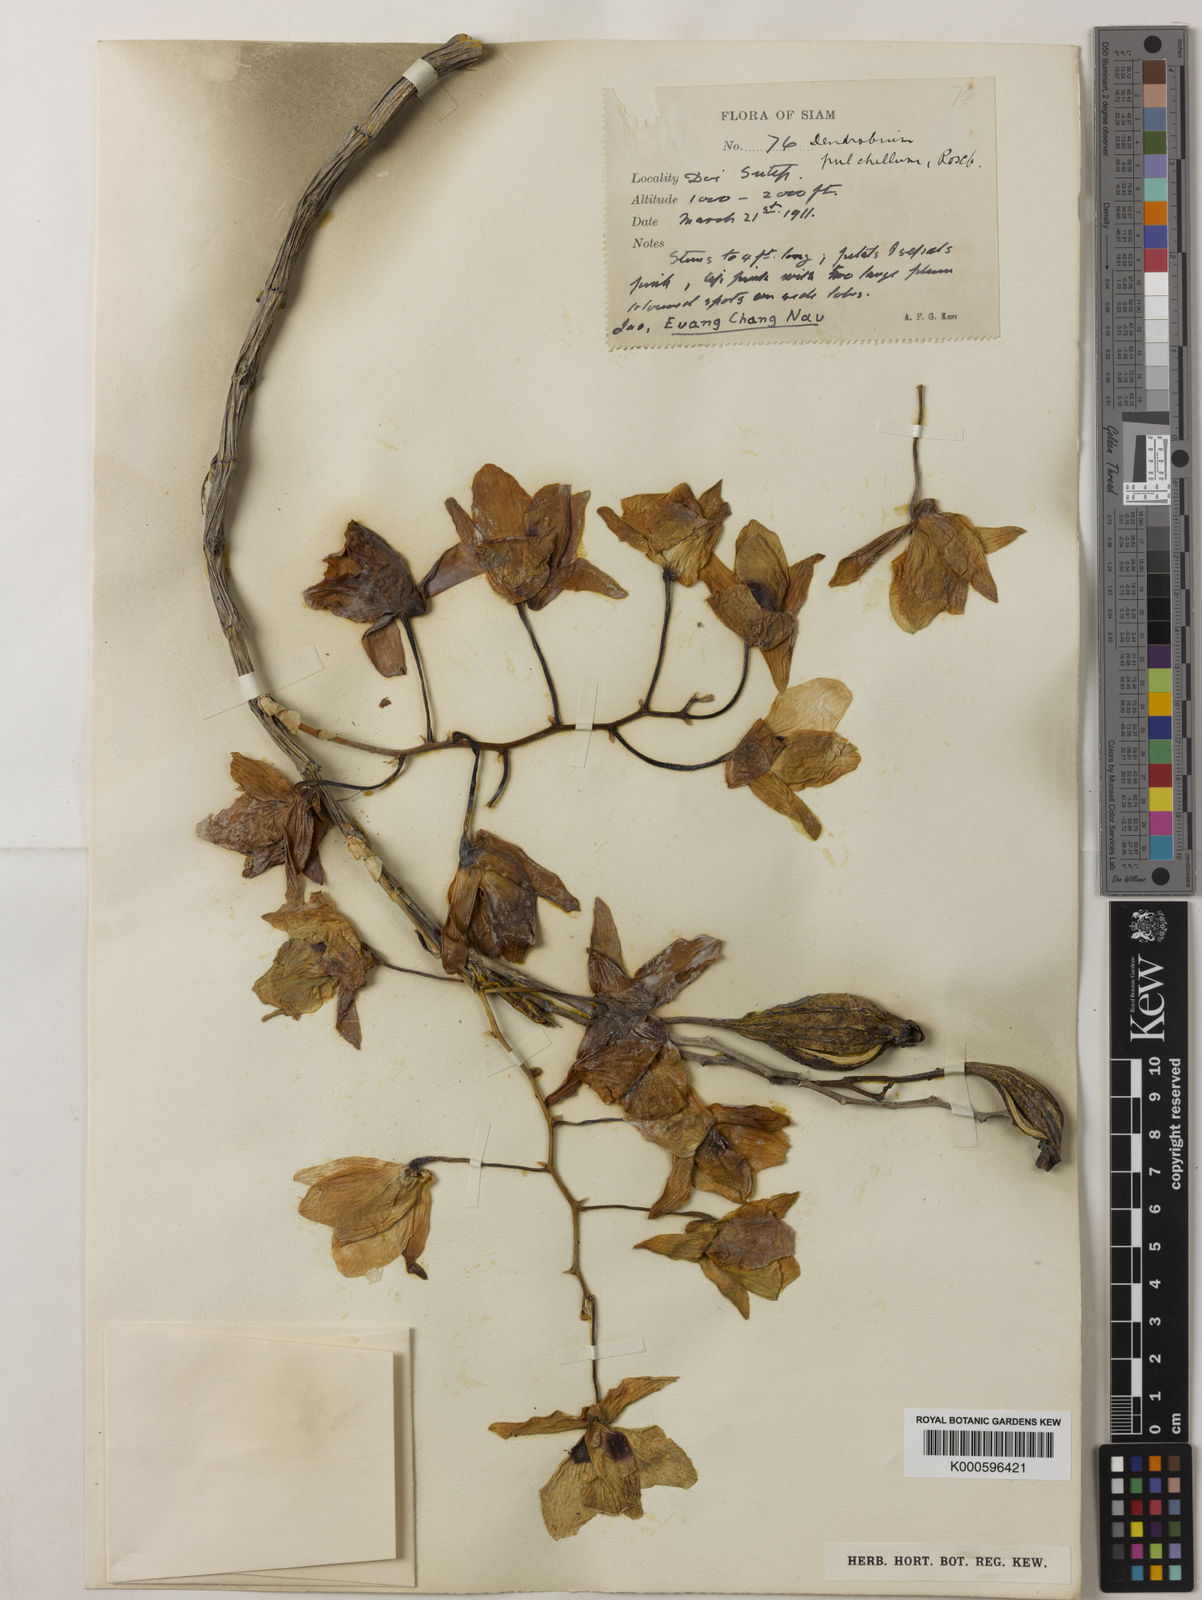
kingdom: Plantae
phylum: Tracheophyta
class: Liliopsida
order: Asparagales
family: Orchidaceae
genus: Dendrobium
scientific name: Dendrobium
